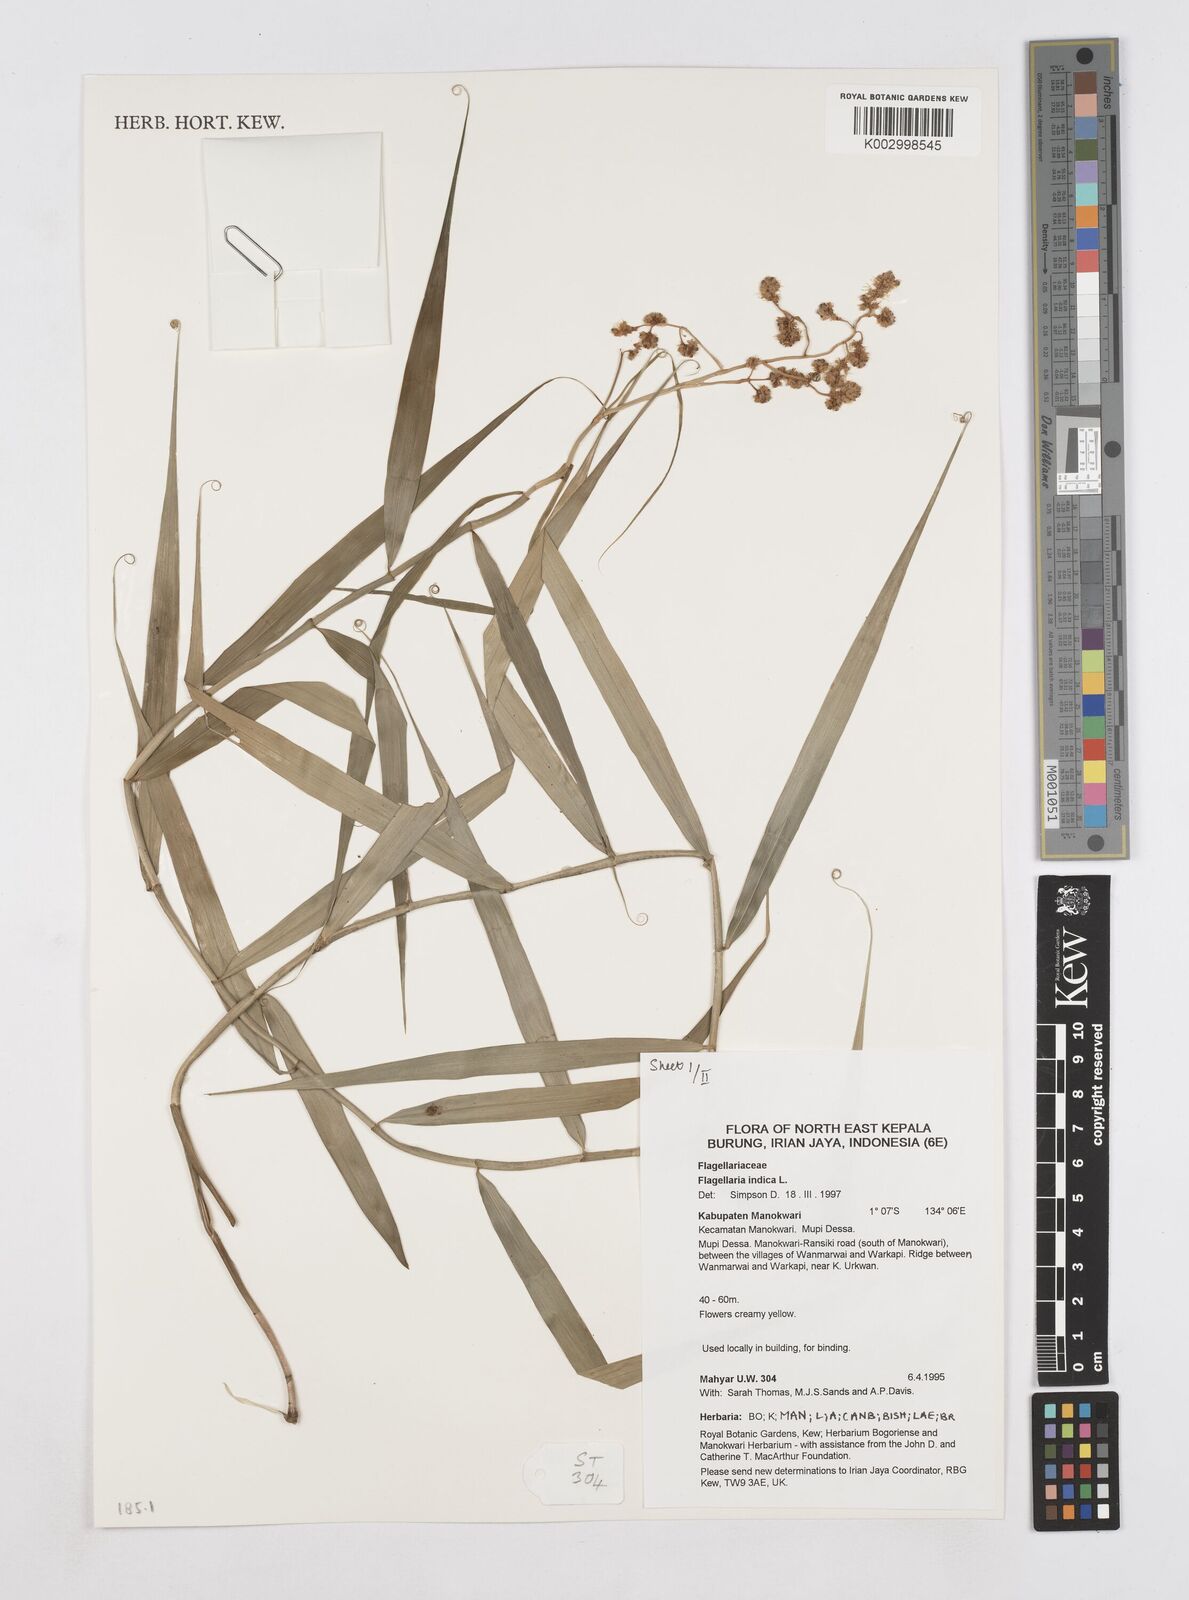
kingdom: Plantae
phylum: Tracheophyta
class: Liliopsida
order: Poales
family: Flagellariaceae
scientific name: Flagellariaceae
